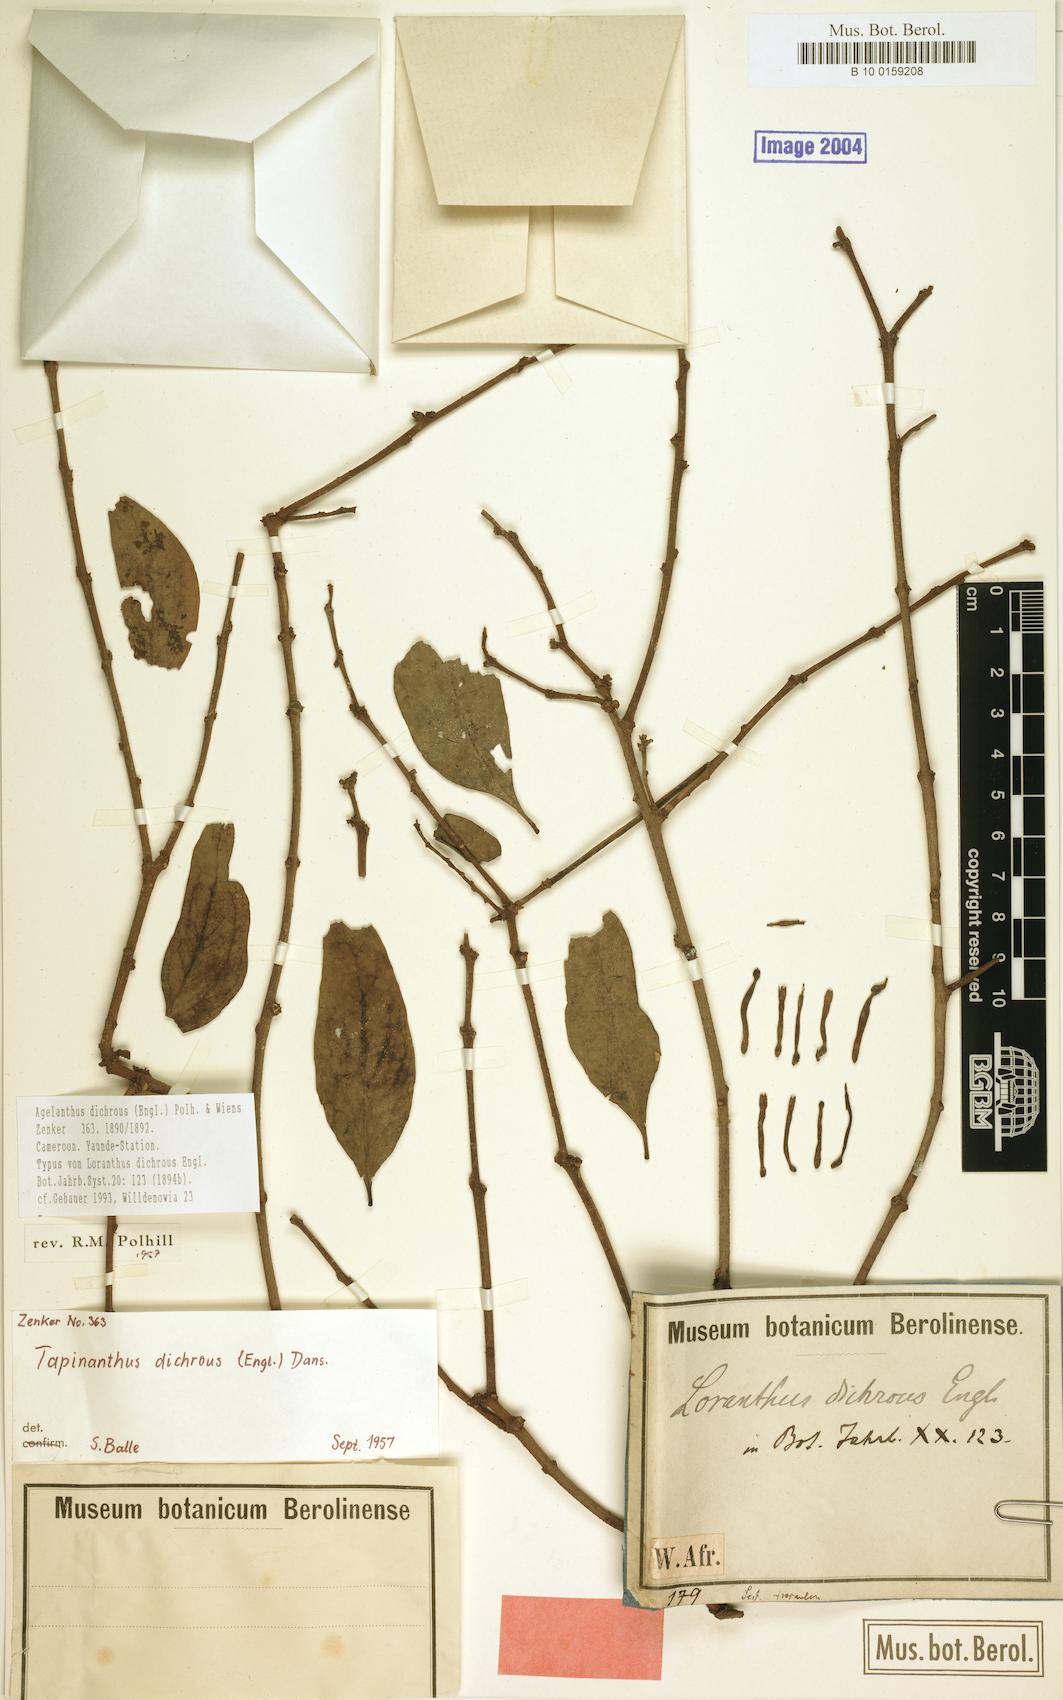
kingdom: Plantae
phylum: Tracheophyta
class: Magnoliopsida
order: Santalales
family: Loranthaceae
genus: Agelanthus
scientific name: Agelanthus dichrous
